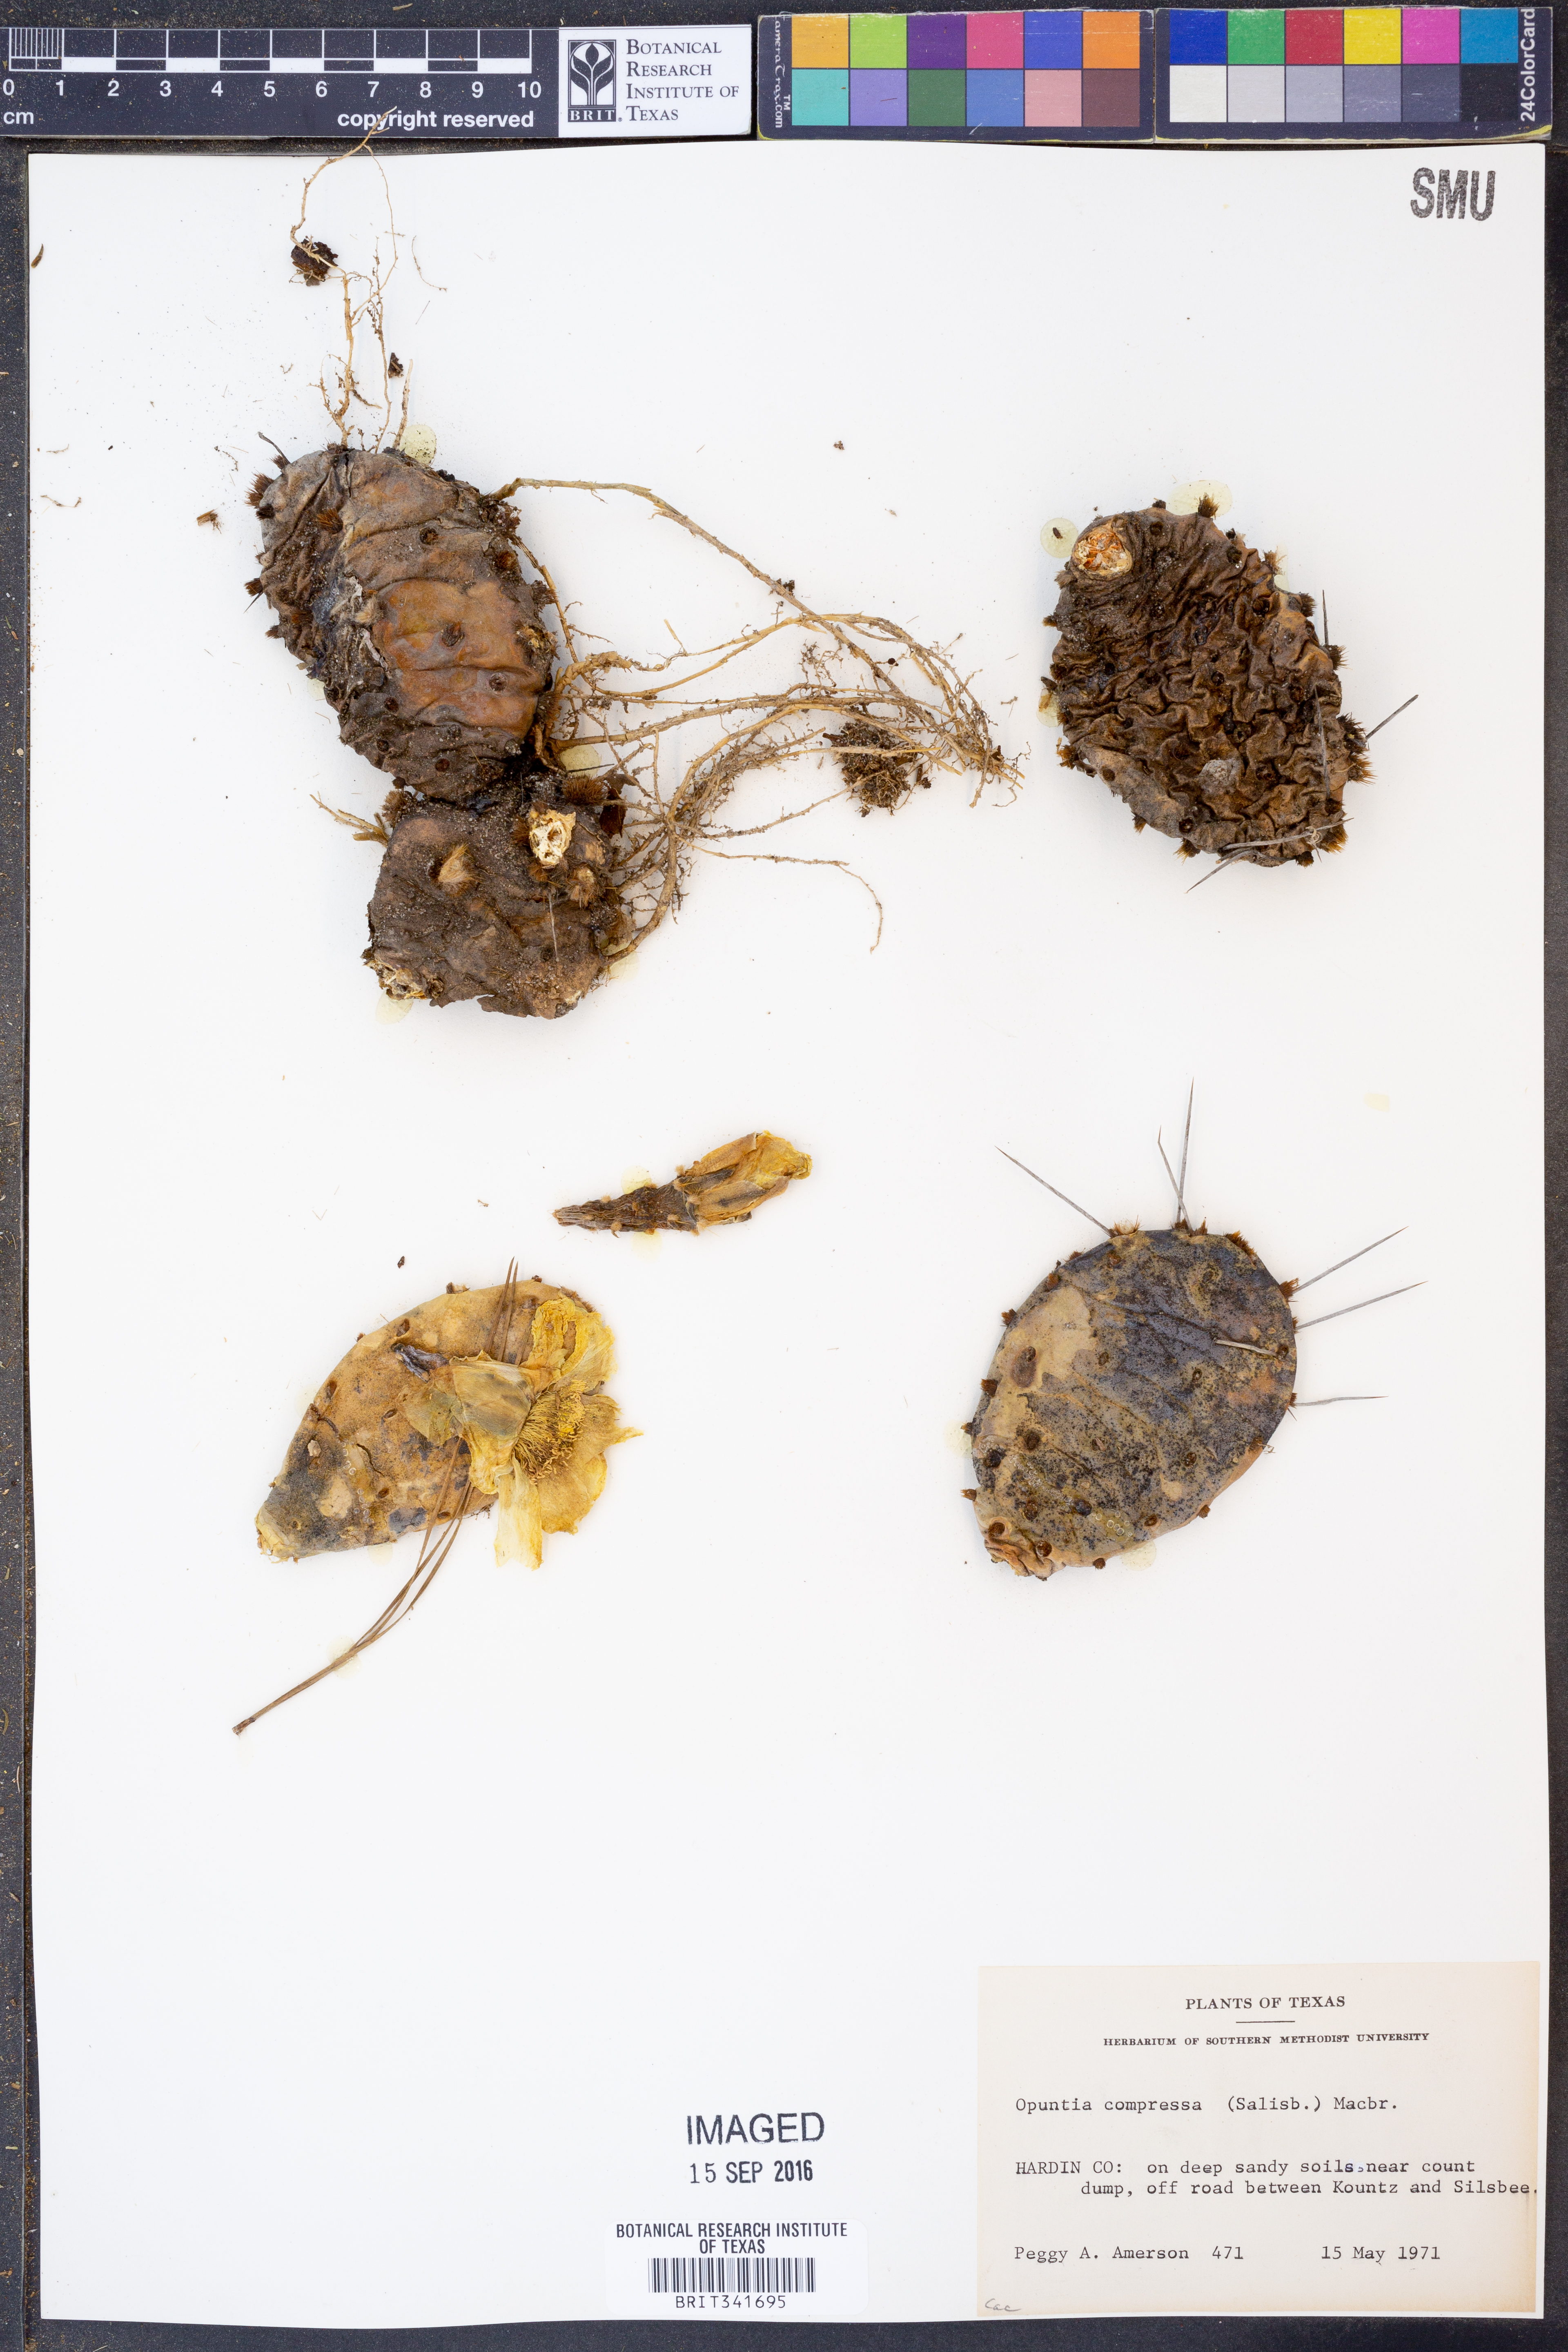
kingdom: Plantae
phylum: Tracheophyta
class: Magnoliopsida
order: Caryophyllales
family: Cactaceae
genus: Opuntia
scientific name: Opuntia humifusa
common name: Eastern prickly-pear
